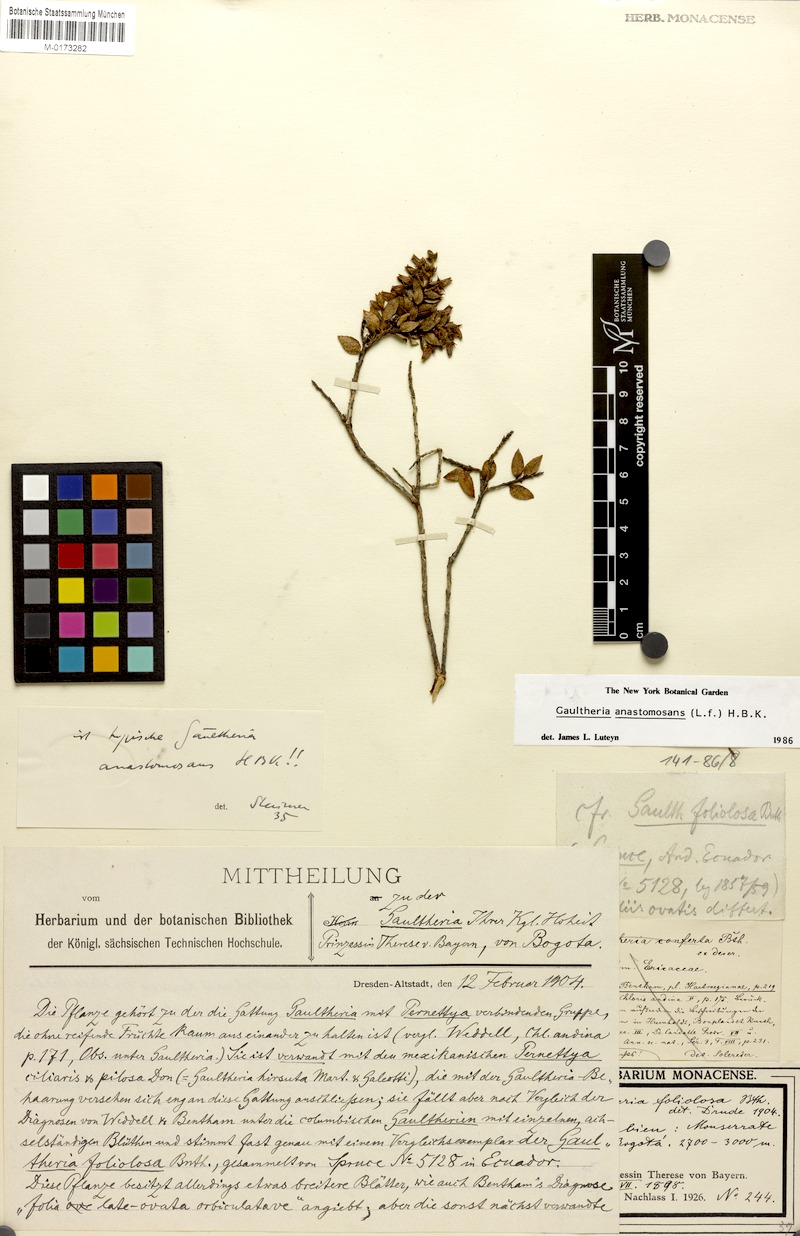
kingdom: Plantae
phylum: Tracheophyta
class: Magnoliopsida
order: Ericales
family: Ericaceae
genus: Gaultheria
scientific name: Gaultheria anastomosans
